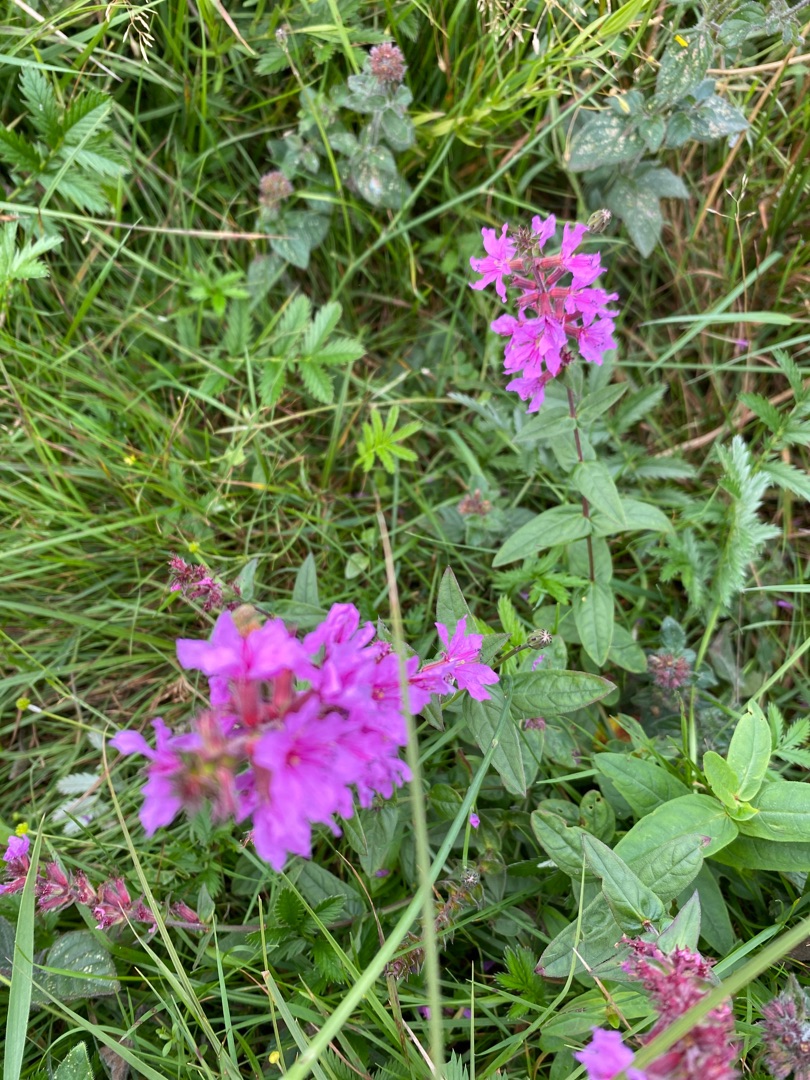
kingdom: Plantae
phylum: Tracheophyta
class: Magnoliopsida
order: Myrtales
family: Lythraceae
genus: Lythrum
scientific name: Lythrum salicaria
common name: Kattehale
